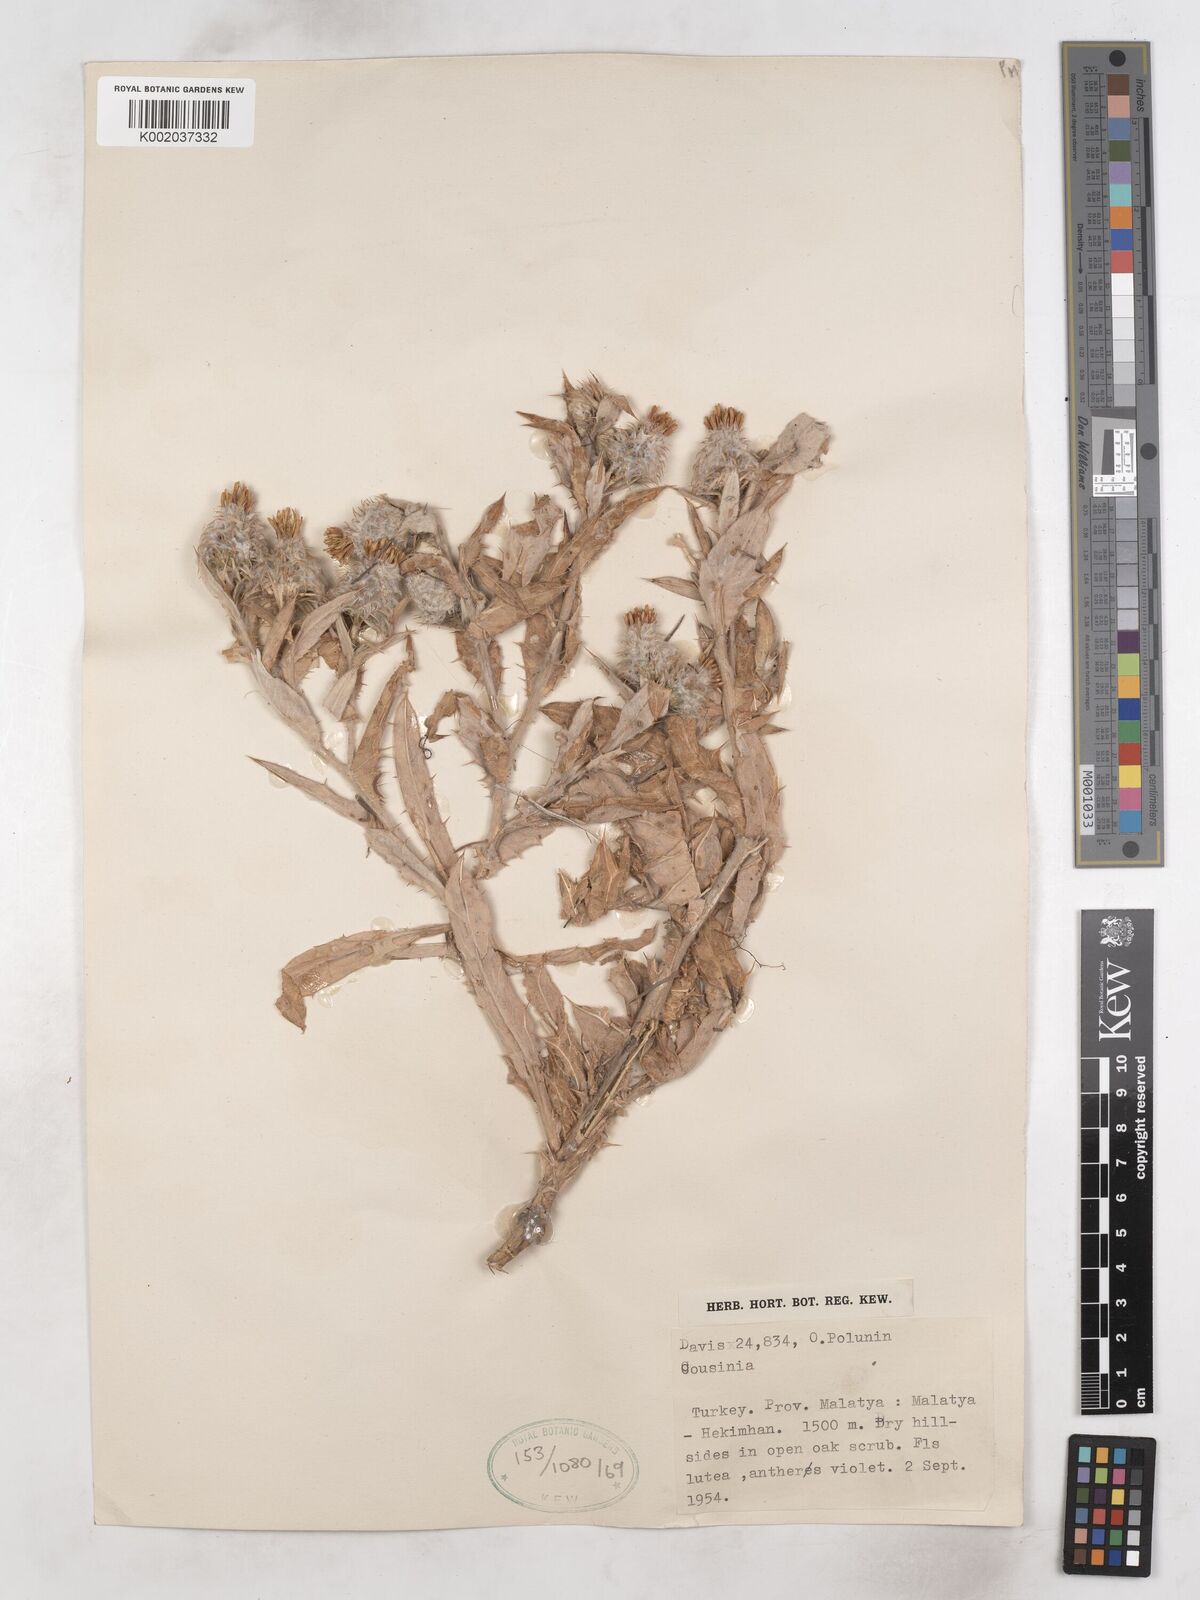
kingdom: Plantae
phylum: Tracheophyta
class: Magnoliopsida
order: Asterales
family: Asteraceae
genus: Cousinia
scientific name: Cousinia intertexta
